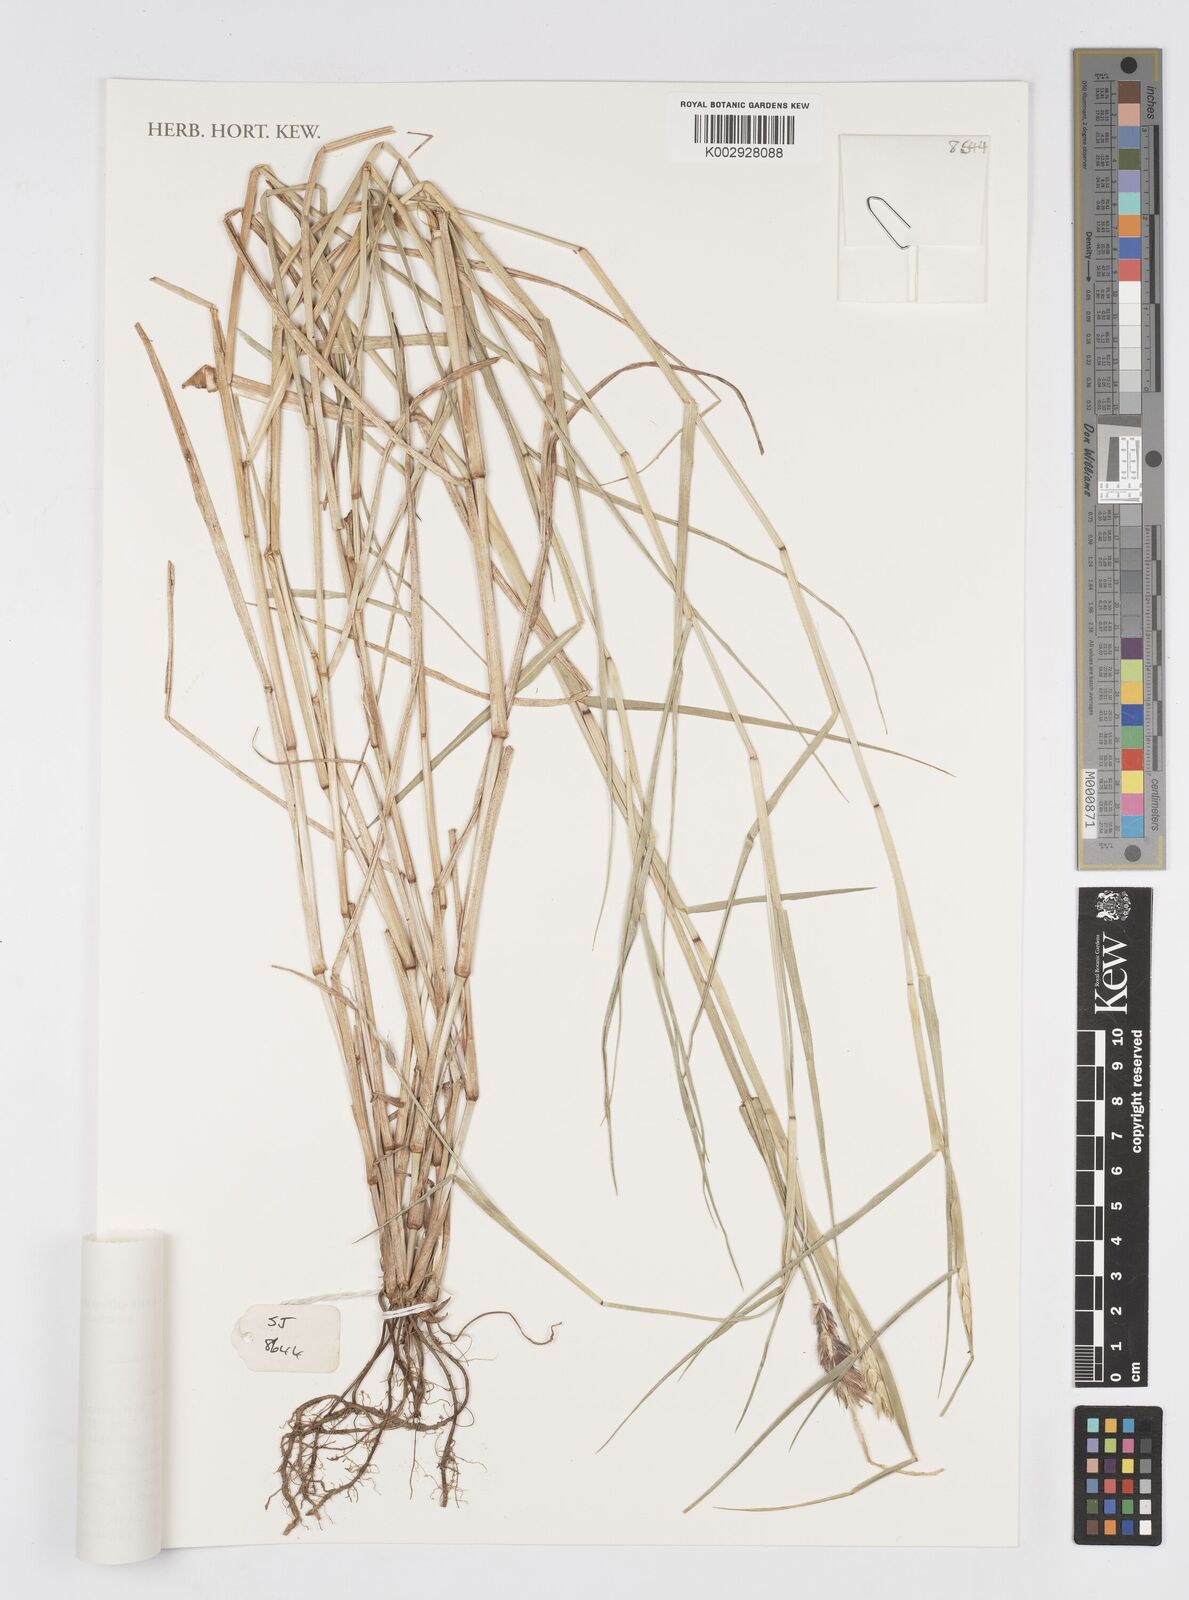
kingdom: Plantae
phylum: Tracheophyta
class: Liliopsida
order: Poales
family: Poaceae
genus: Cenchrus
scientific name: Cenchrus
